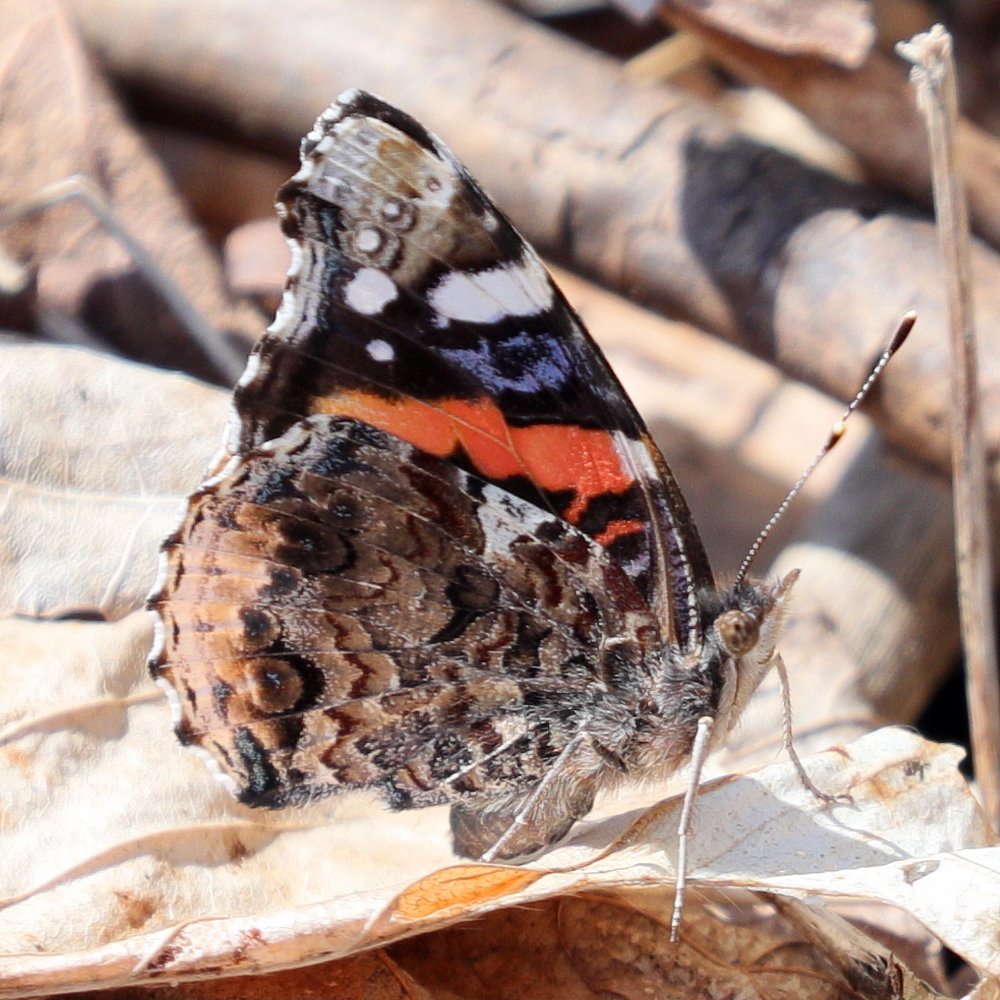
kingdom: Animalia
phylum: Arthropoda
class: Insecta
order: Lepidoptera
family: Nymphalidae
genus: Vanessa
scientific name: Vanessa atalanta
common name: Red Admiral
